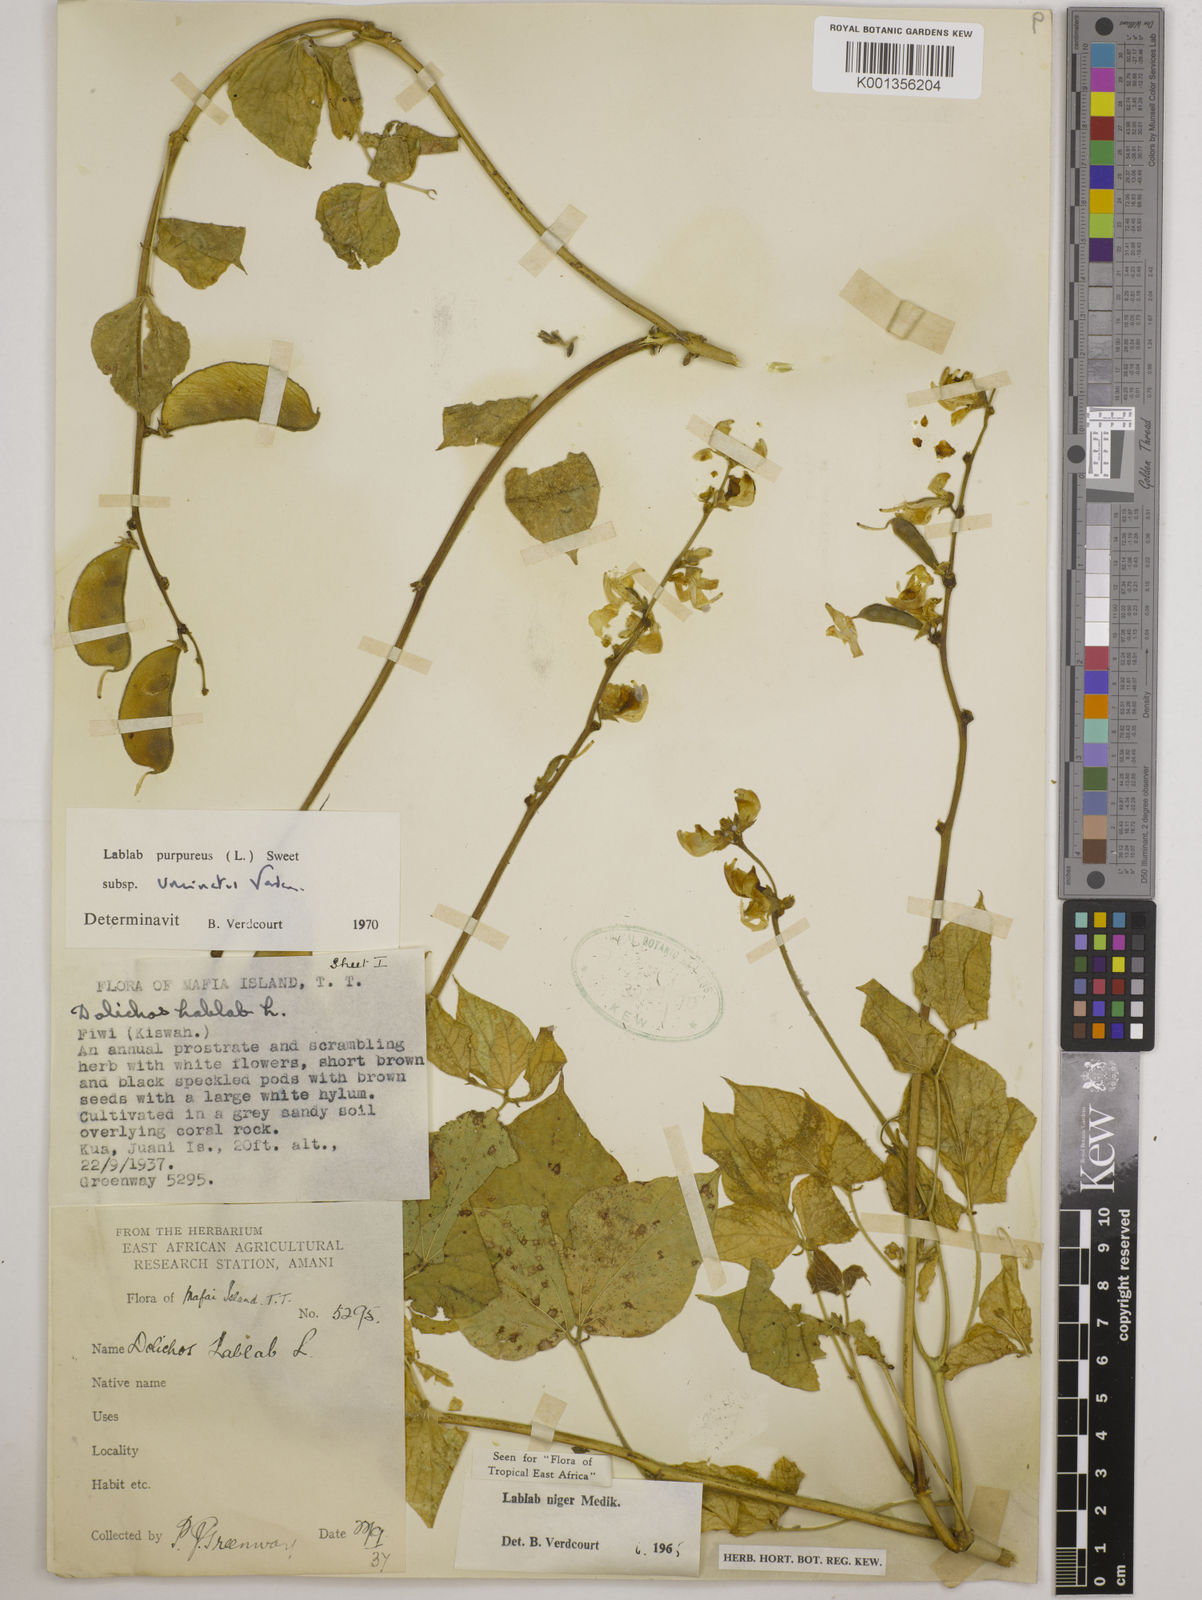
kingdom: Plantae
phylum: Tracheophyta
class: Magnoliopsida
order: Fabales
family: Fabaceae
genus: Lablab
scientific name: Lablab purpureus
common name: Lablab-bean
